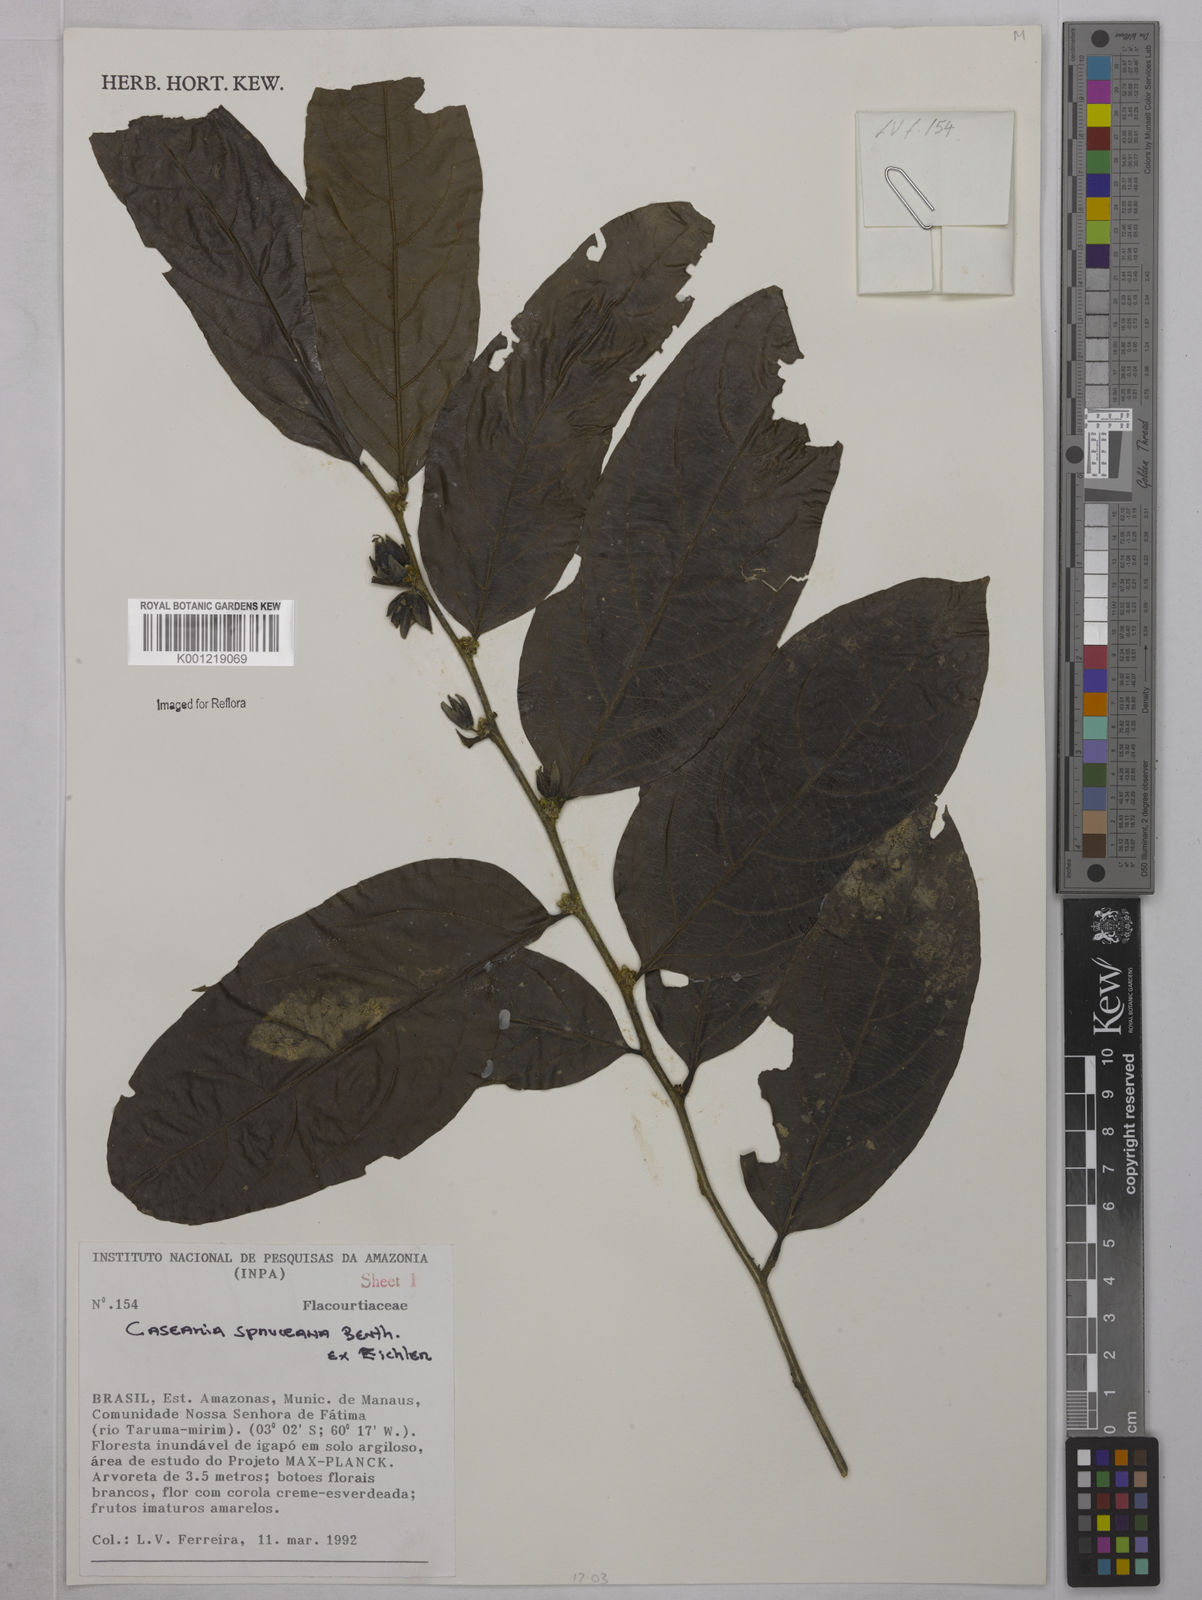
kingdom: Plantae
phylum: Tracheophyta
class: Magnoliopsida
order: Malpighiales
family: Salicaceae
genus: Piparea
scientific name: Piparea spruceana
